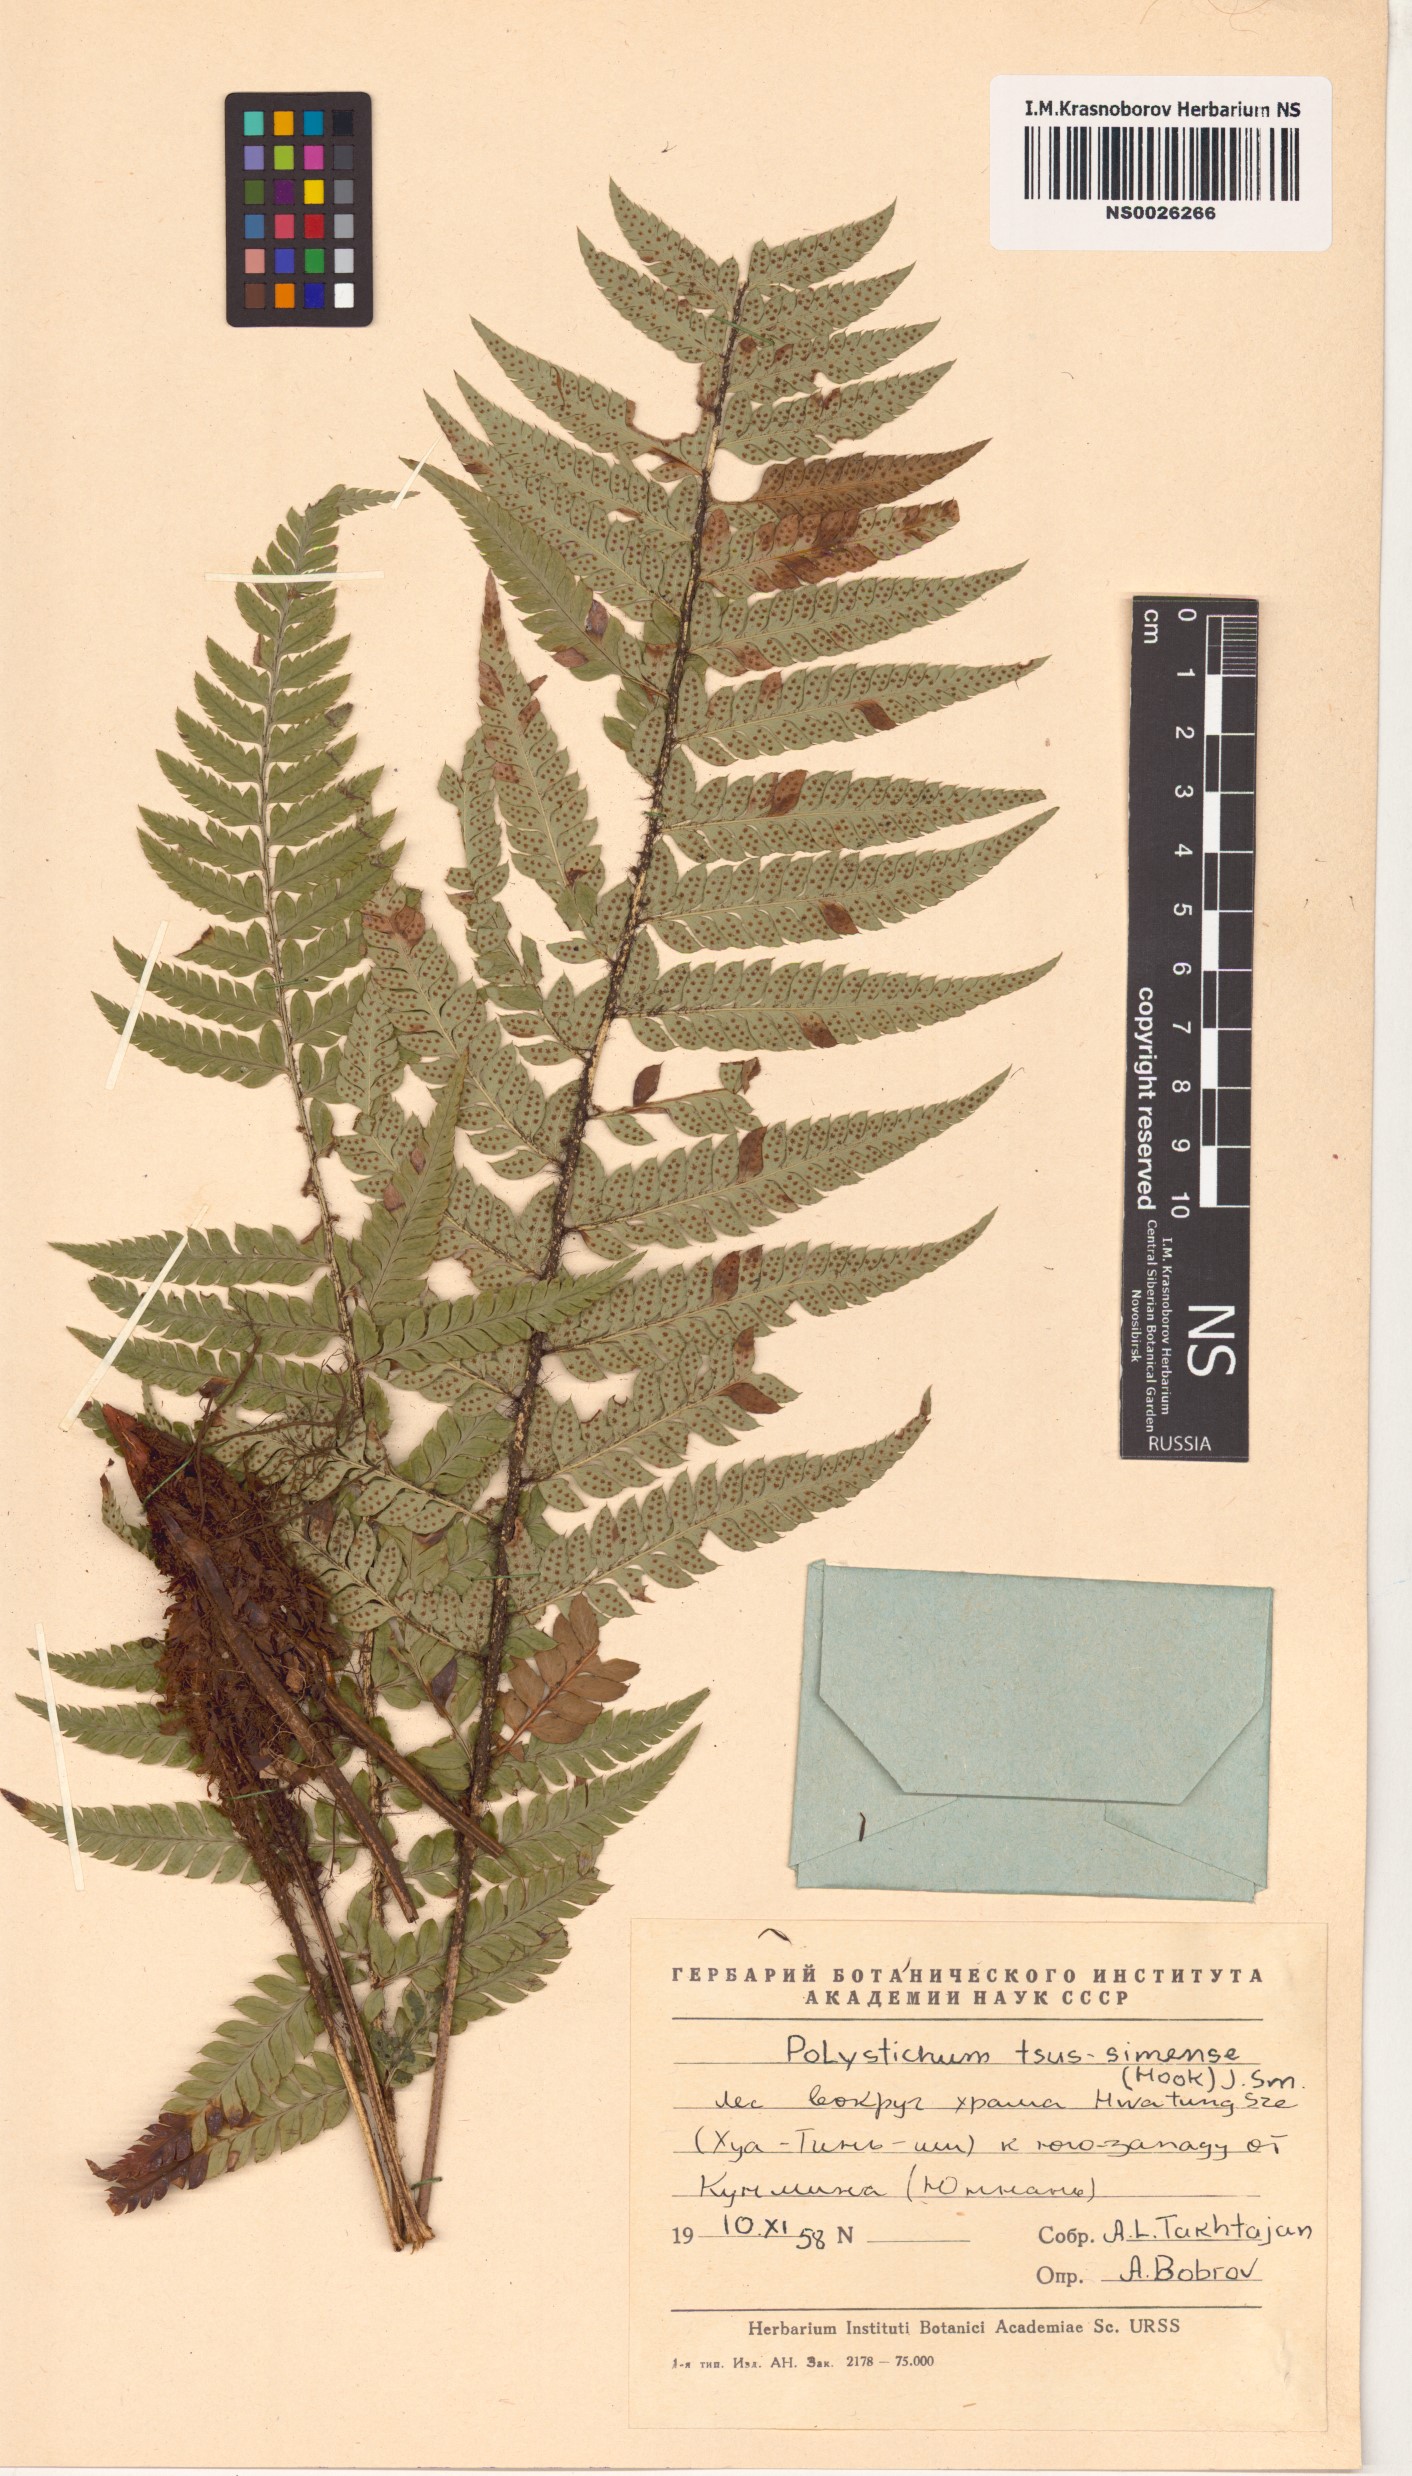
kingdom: Plantae
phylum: Tracheophyta
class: Polypodiopsida
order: Polypodiales
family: Dryopteridaceae
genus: Polystichum
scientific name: Polystichum luctuosum
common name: Korean rockfern
